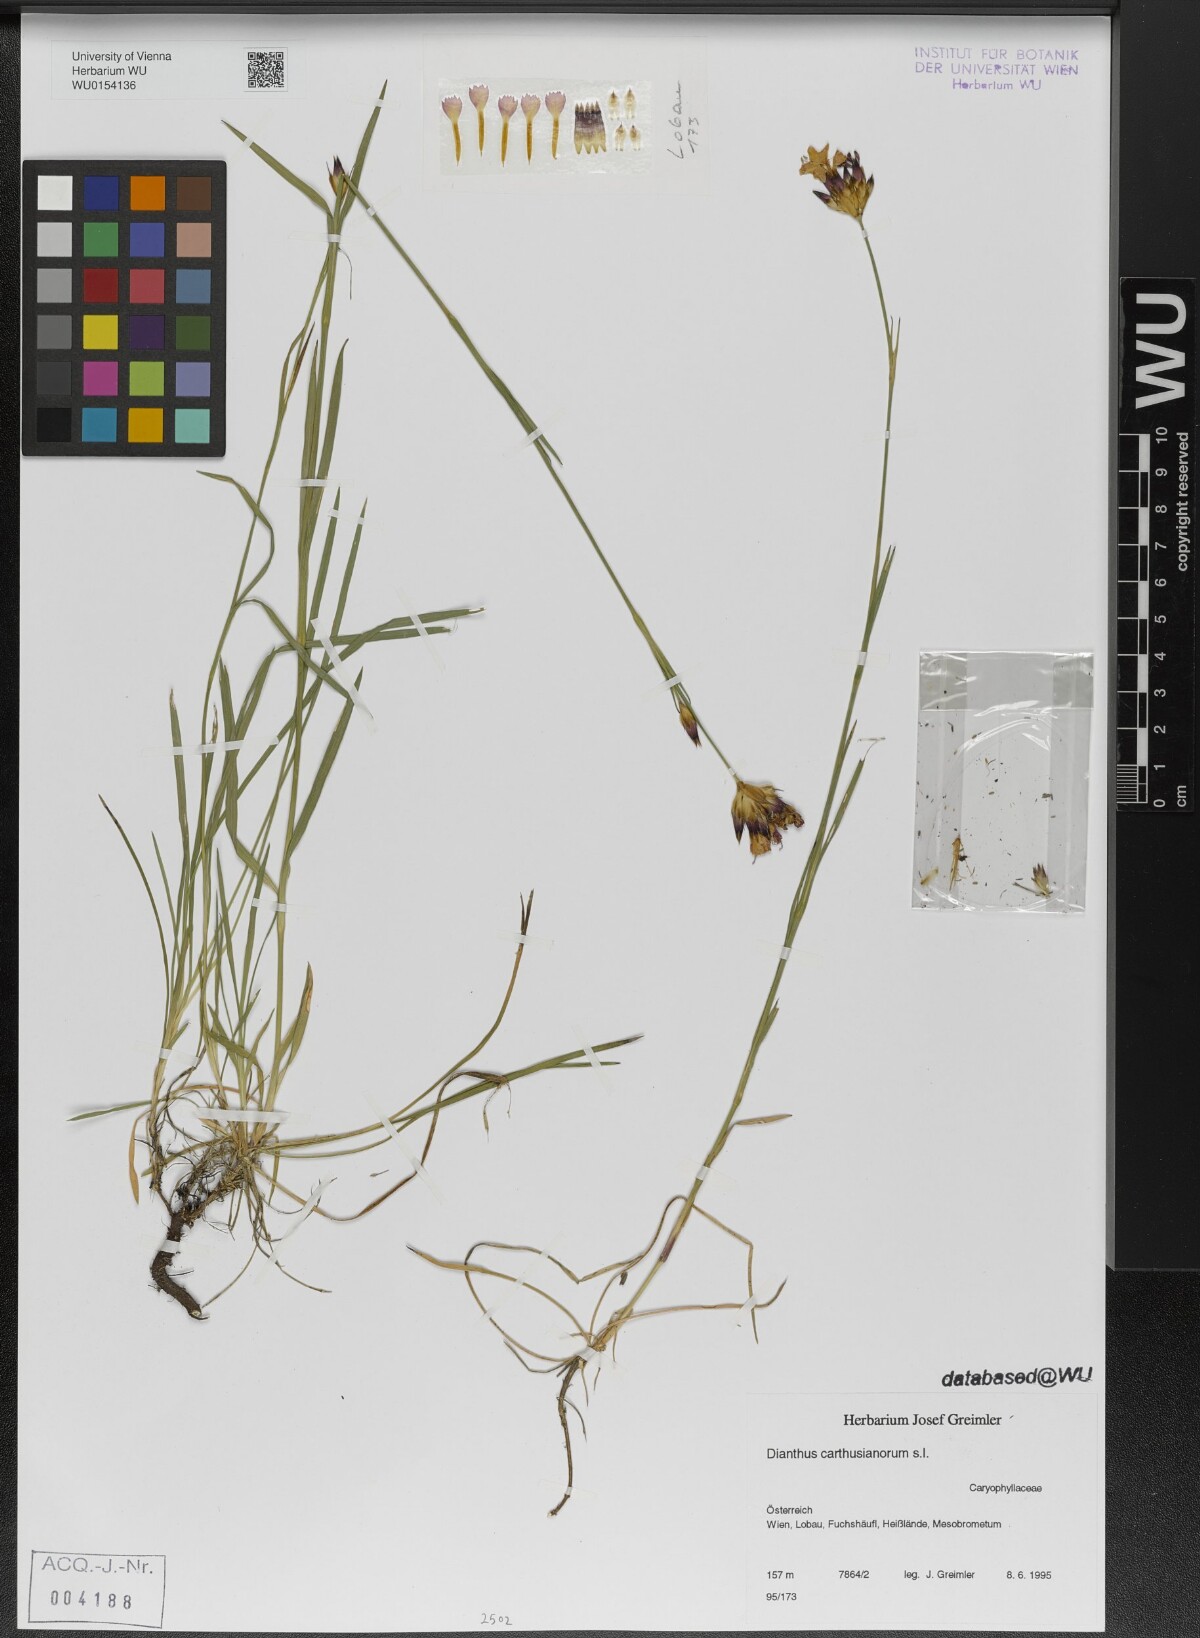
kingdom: Plantae
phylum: Tracheophyta
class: Magnoliopsida
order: Caryophyllales
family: Caryophyllaceae
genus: Dianthus
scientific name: Dianthus carthusianorum
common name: Carthusian pink
